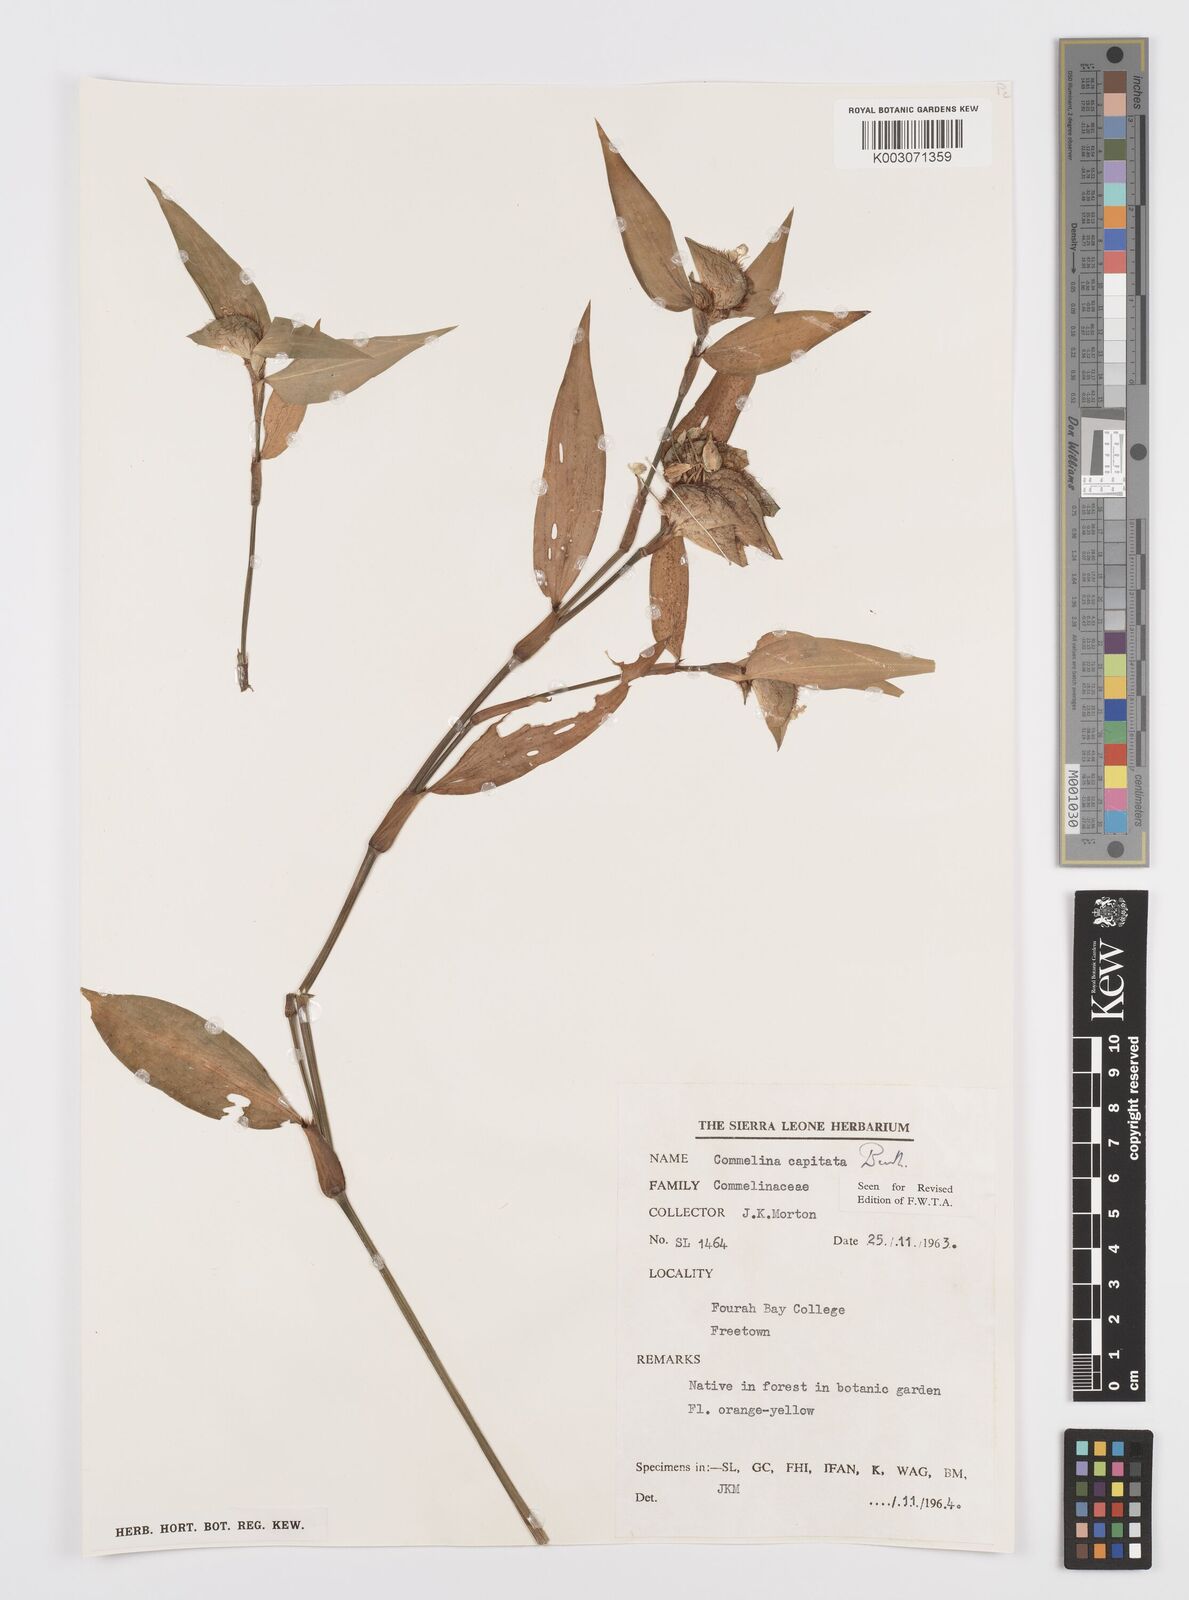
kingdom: Plantae
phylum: Tracheophyta
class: Liliopsida
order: Commelinales
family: Commelinaceae
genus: Commelina
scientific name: Commelina capitata
